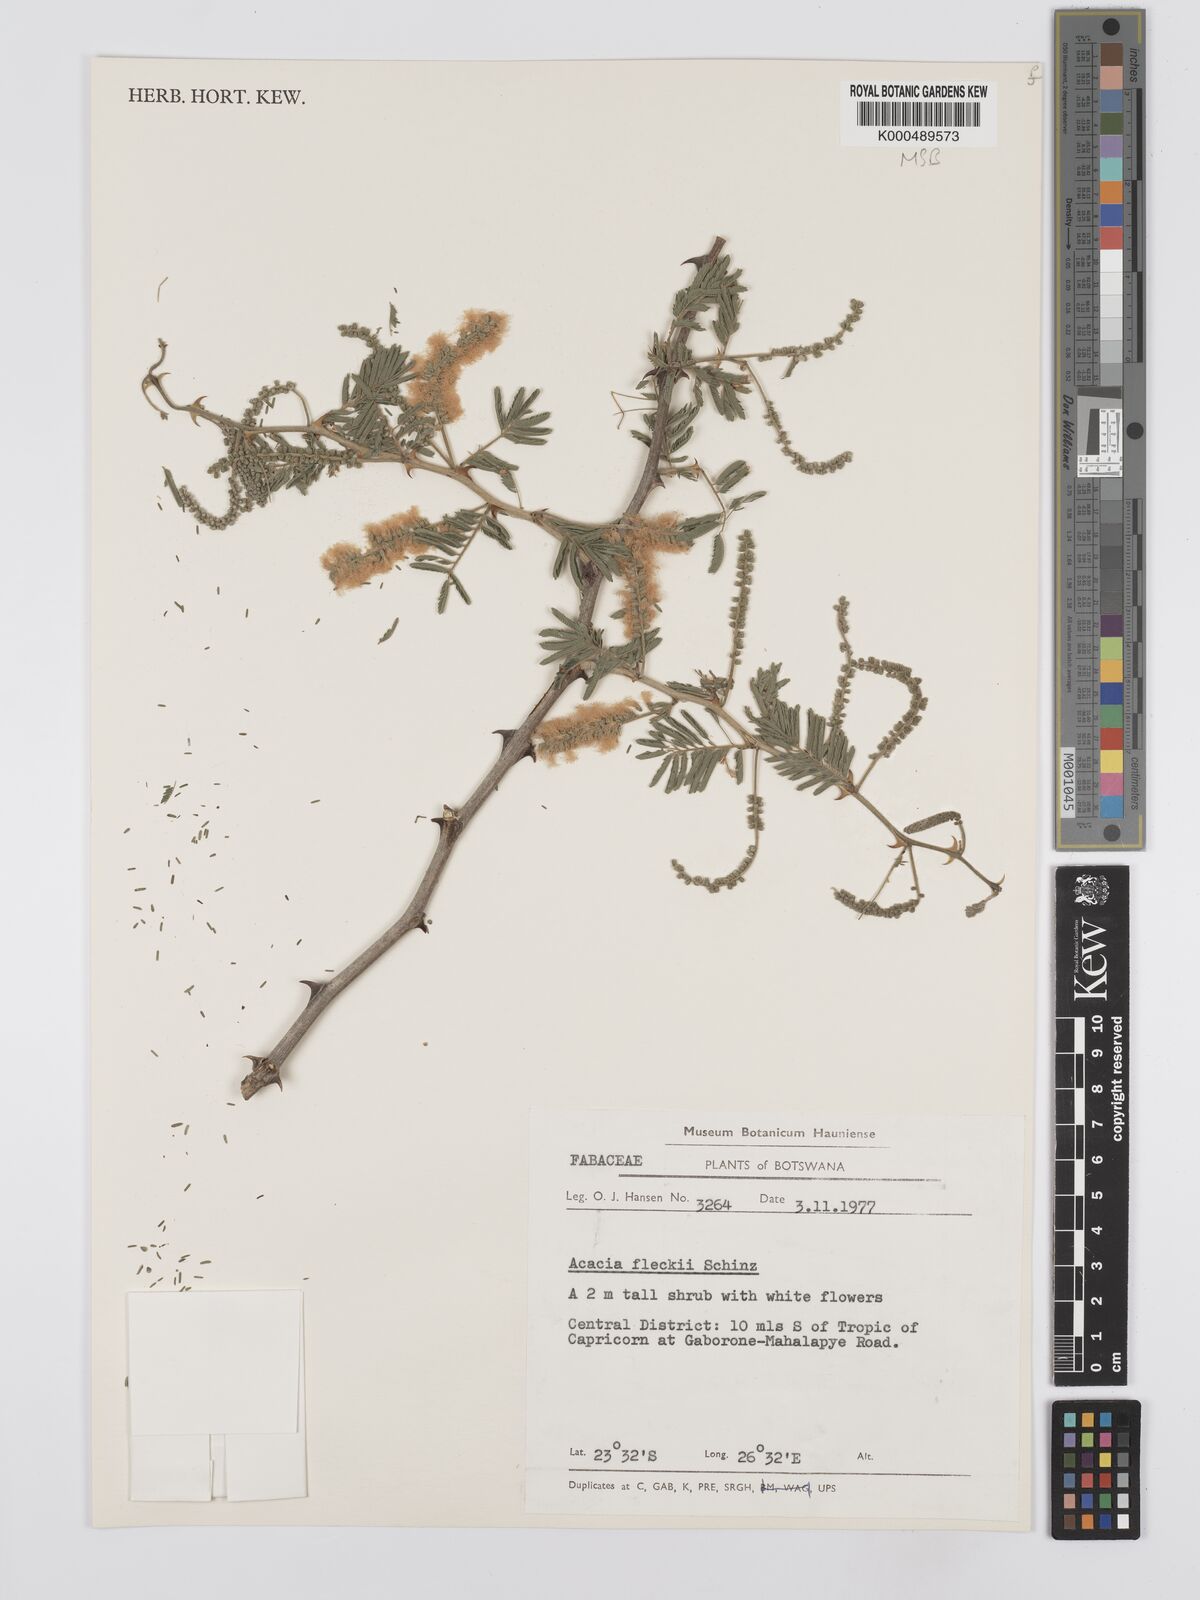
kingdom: Plantae
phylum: Tracheophyta
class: Magnoliopsida
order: Fabales
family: Fabaceae
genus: Senegalia
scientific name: Senegalia fleckii
